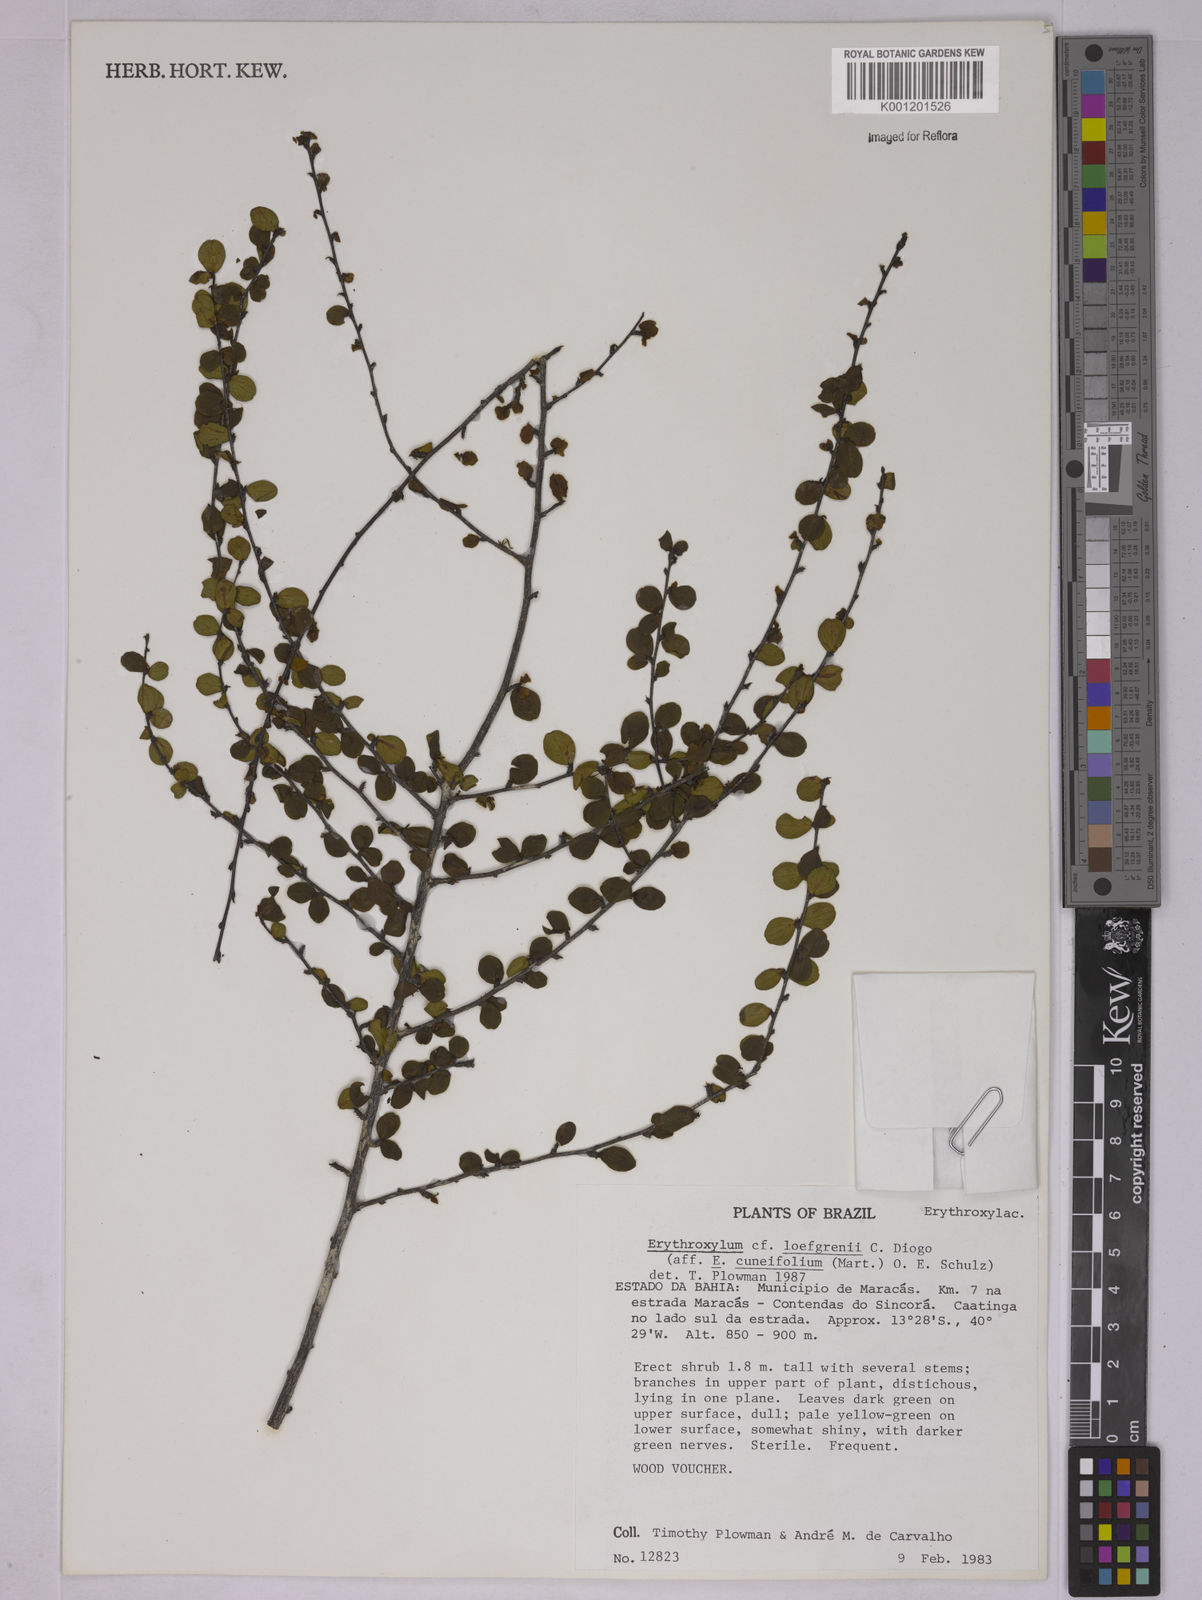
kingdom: Plantae
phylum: Tracheophyta
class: Magnoliopsida
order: Malpighiales
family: Erythroxylaceae
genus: Erythroxylum
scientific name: Erythroxylum loefgrenii
